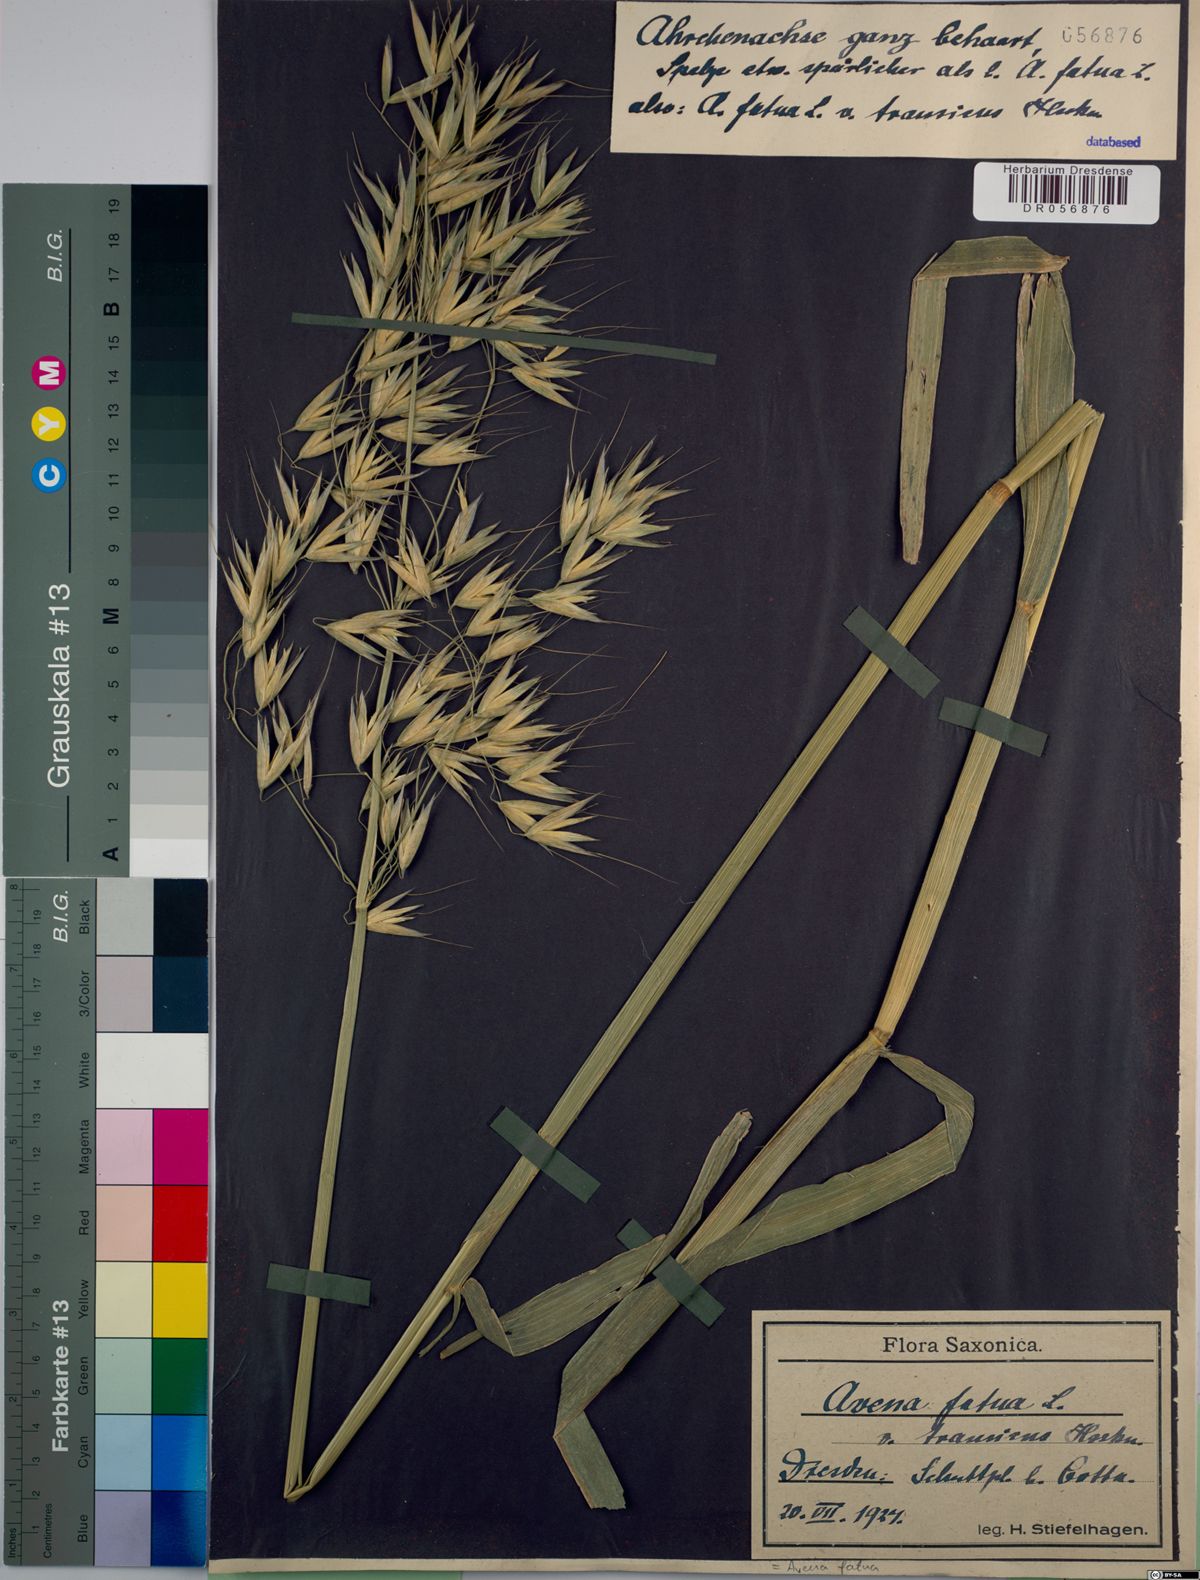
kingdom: Plantae
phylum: Tracheophyta
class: Liliopsida
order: Poales
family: Poaceae
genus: Avena
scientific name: Avena fatua
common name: Wild oat
